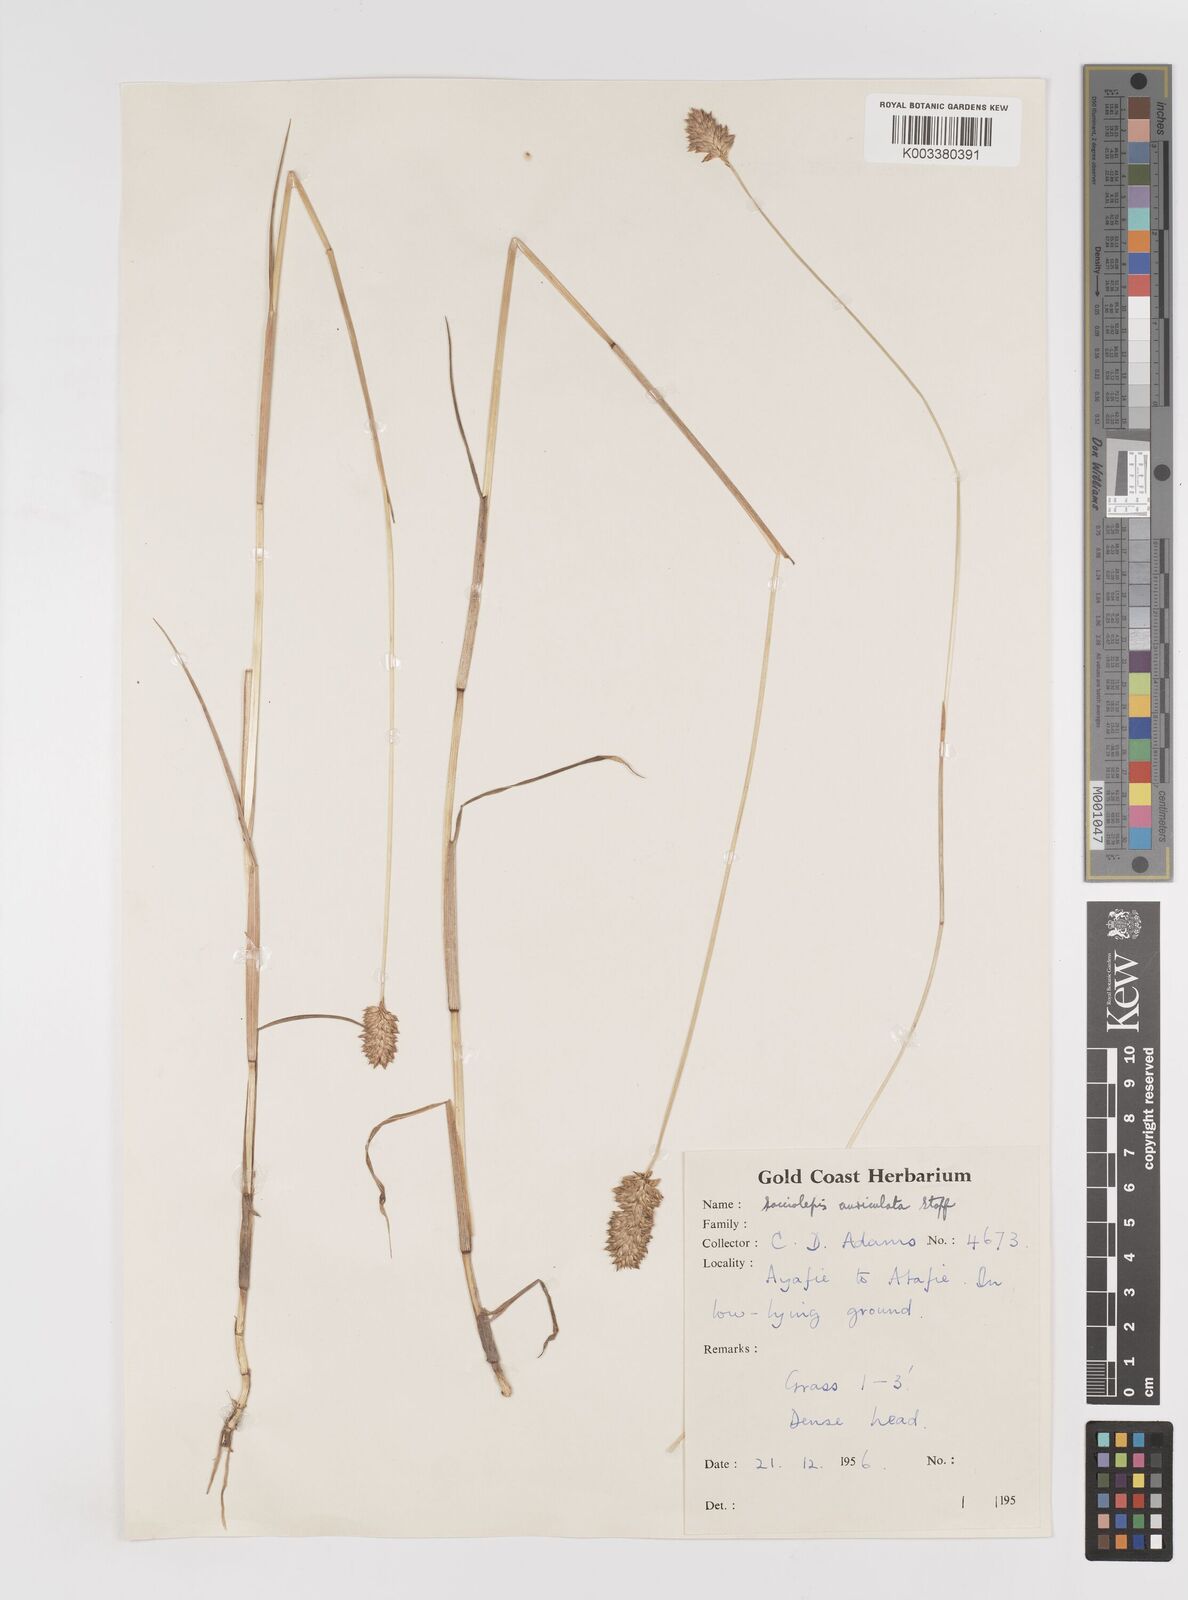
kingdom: Plantae
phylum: Tracheophyta
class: Liliopsida
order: Poales
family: Poaceae
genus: Sacciolepis
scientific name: Sacciolepis leptorrhachis
